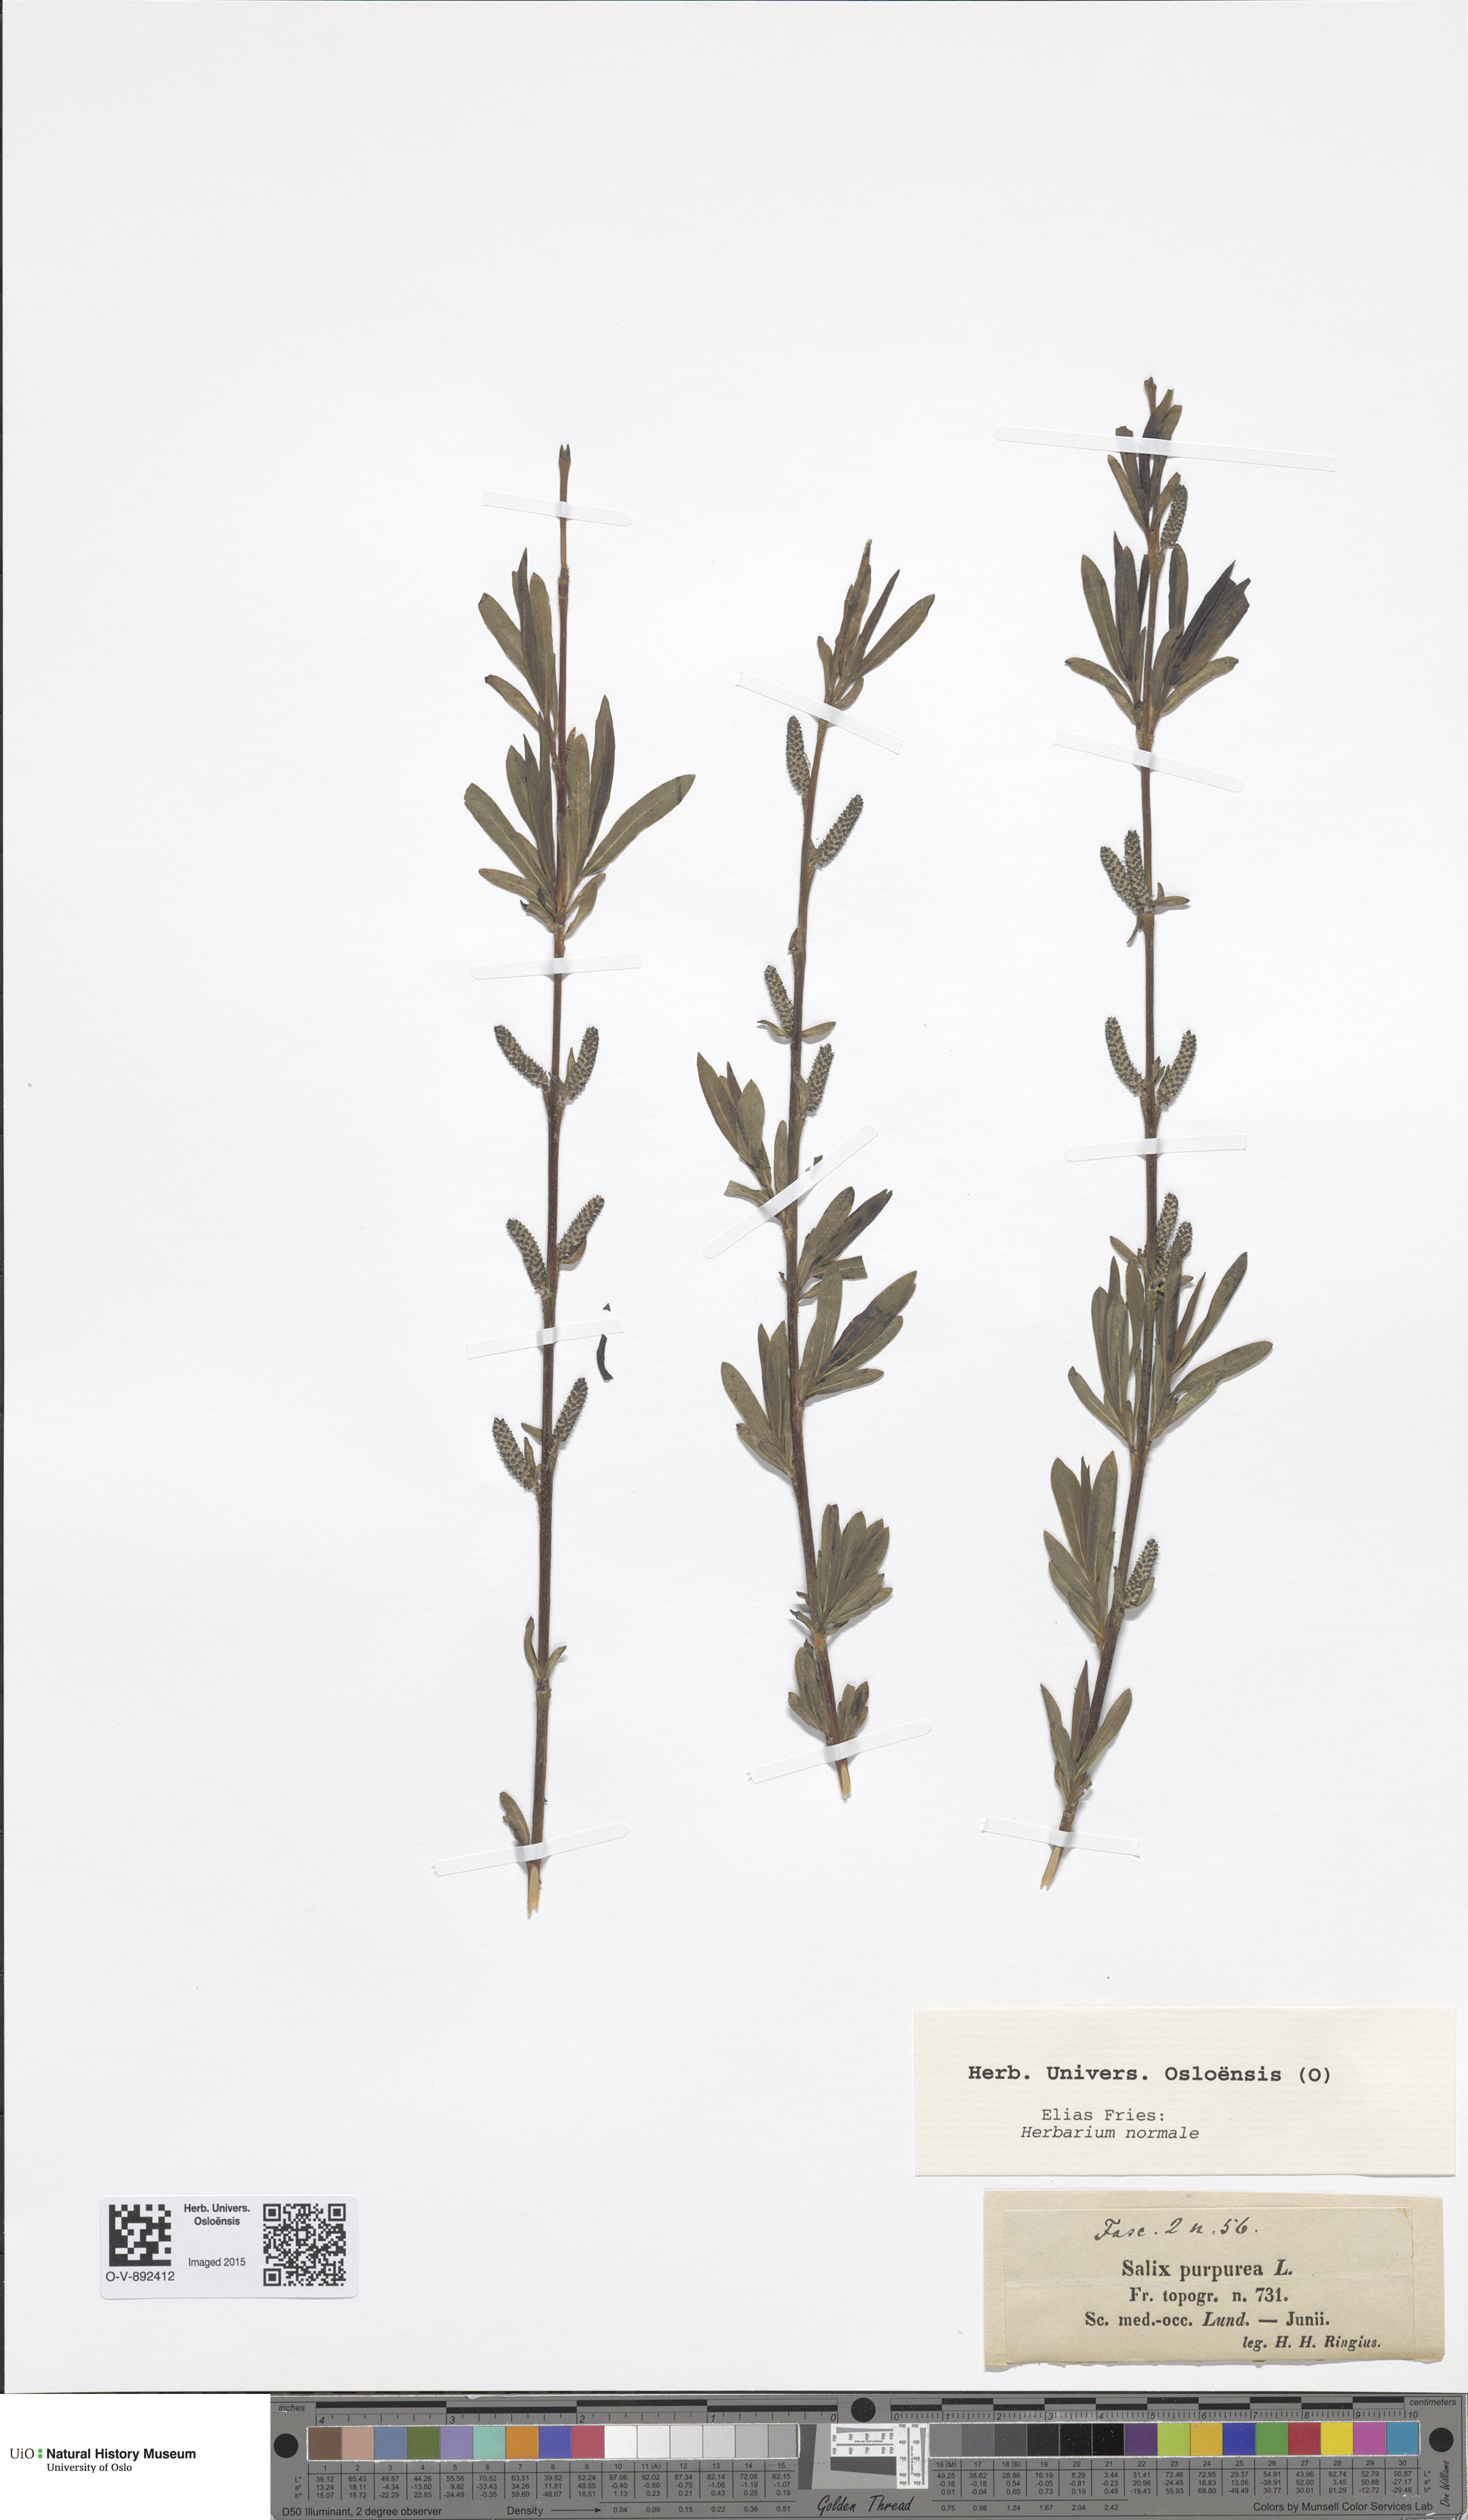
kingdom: Plantae
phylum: Tracheophyta
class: Magnoliopsida
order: Malpighiales
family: Salicaceae
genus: Salix
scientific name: Salix purpurea
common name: Purple willow
